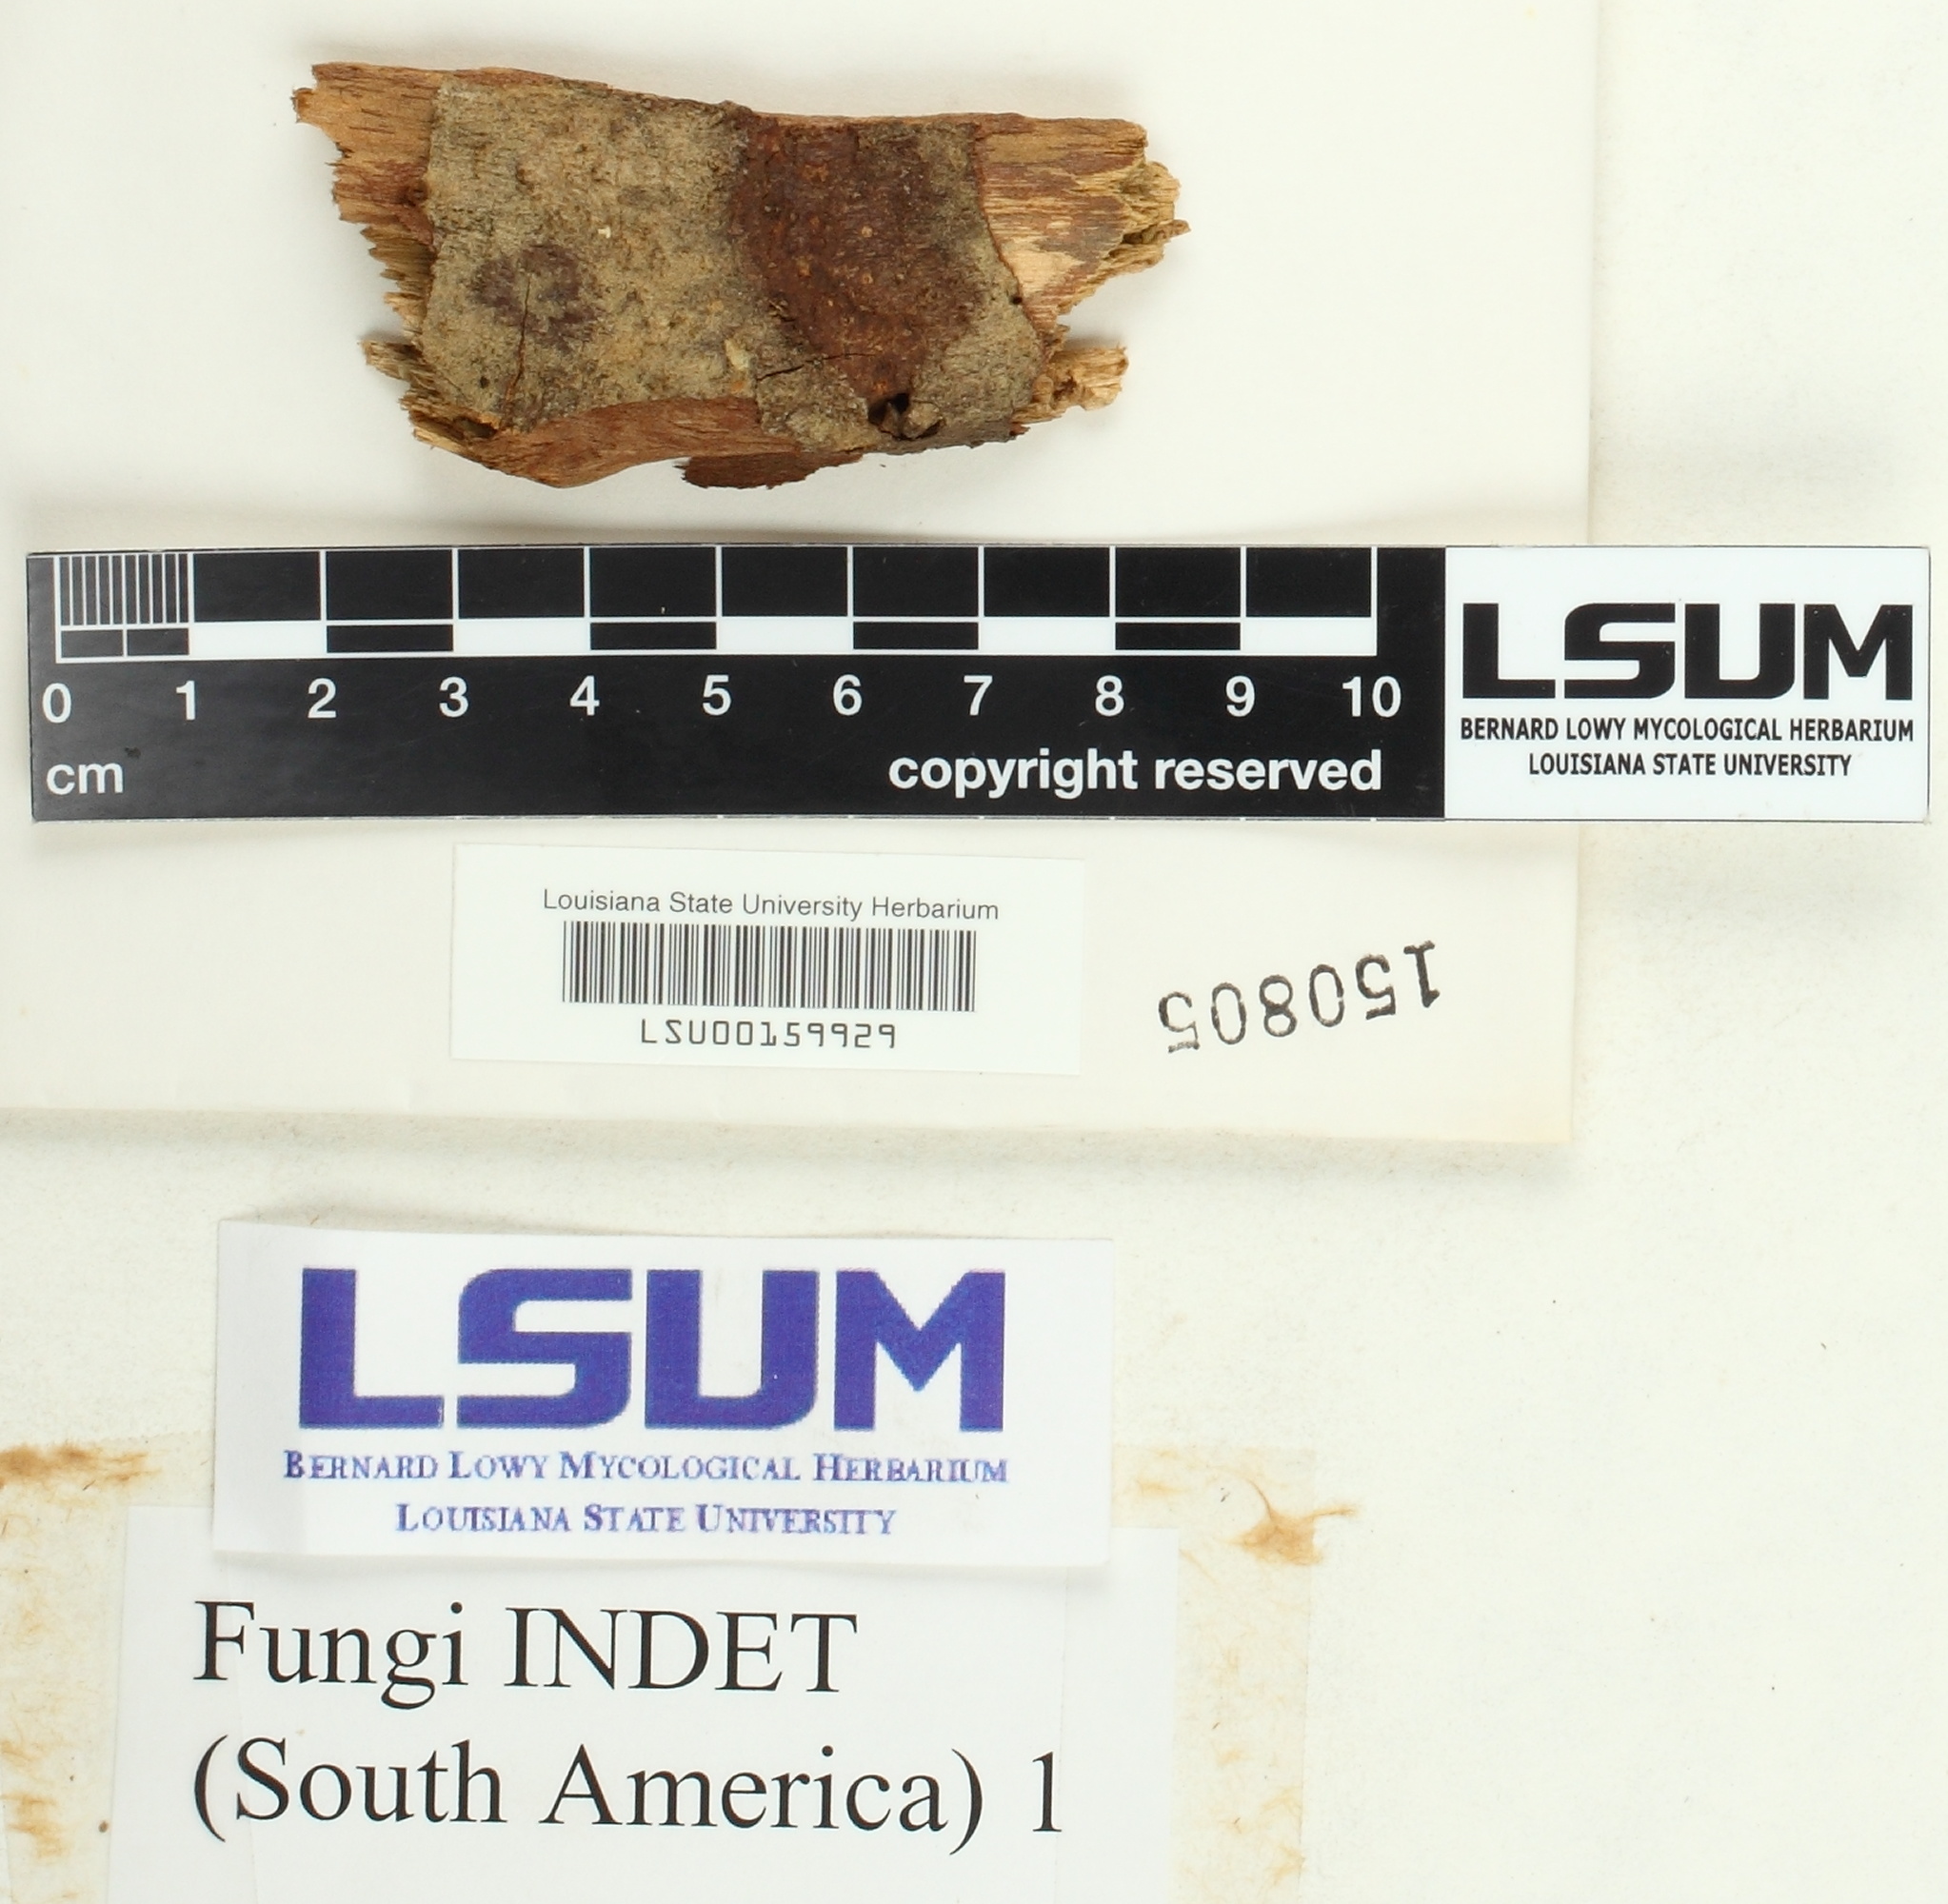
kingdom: Fungi
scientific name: Fungi
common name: Fungi
